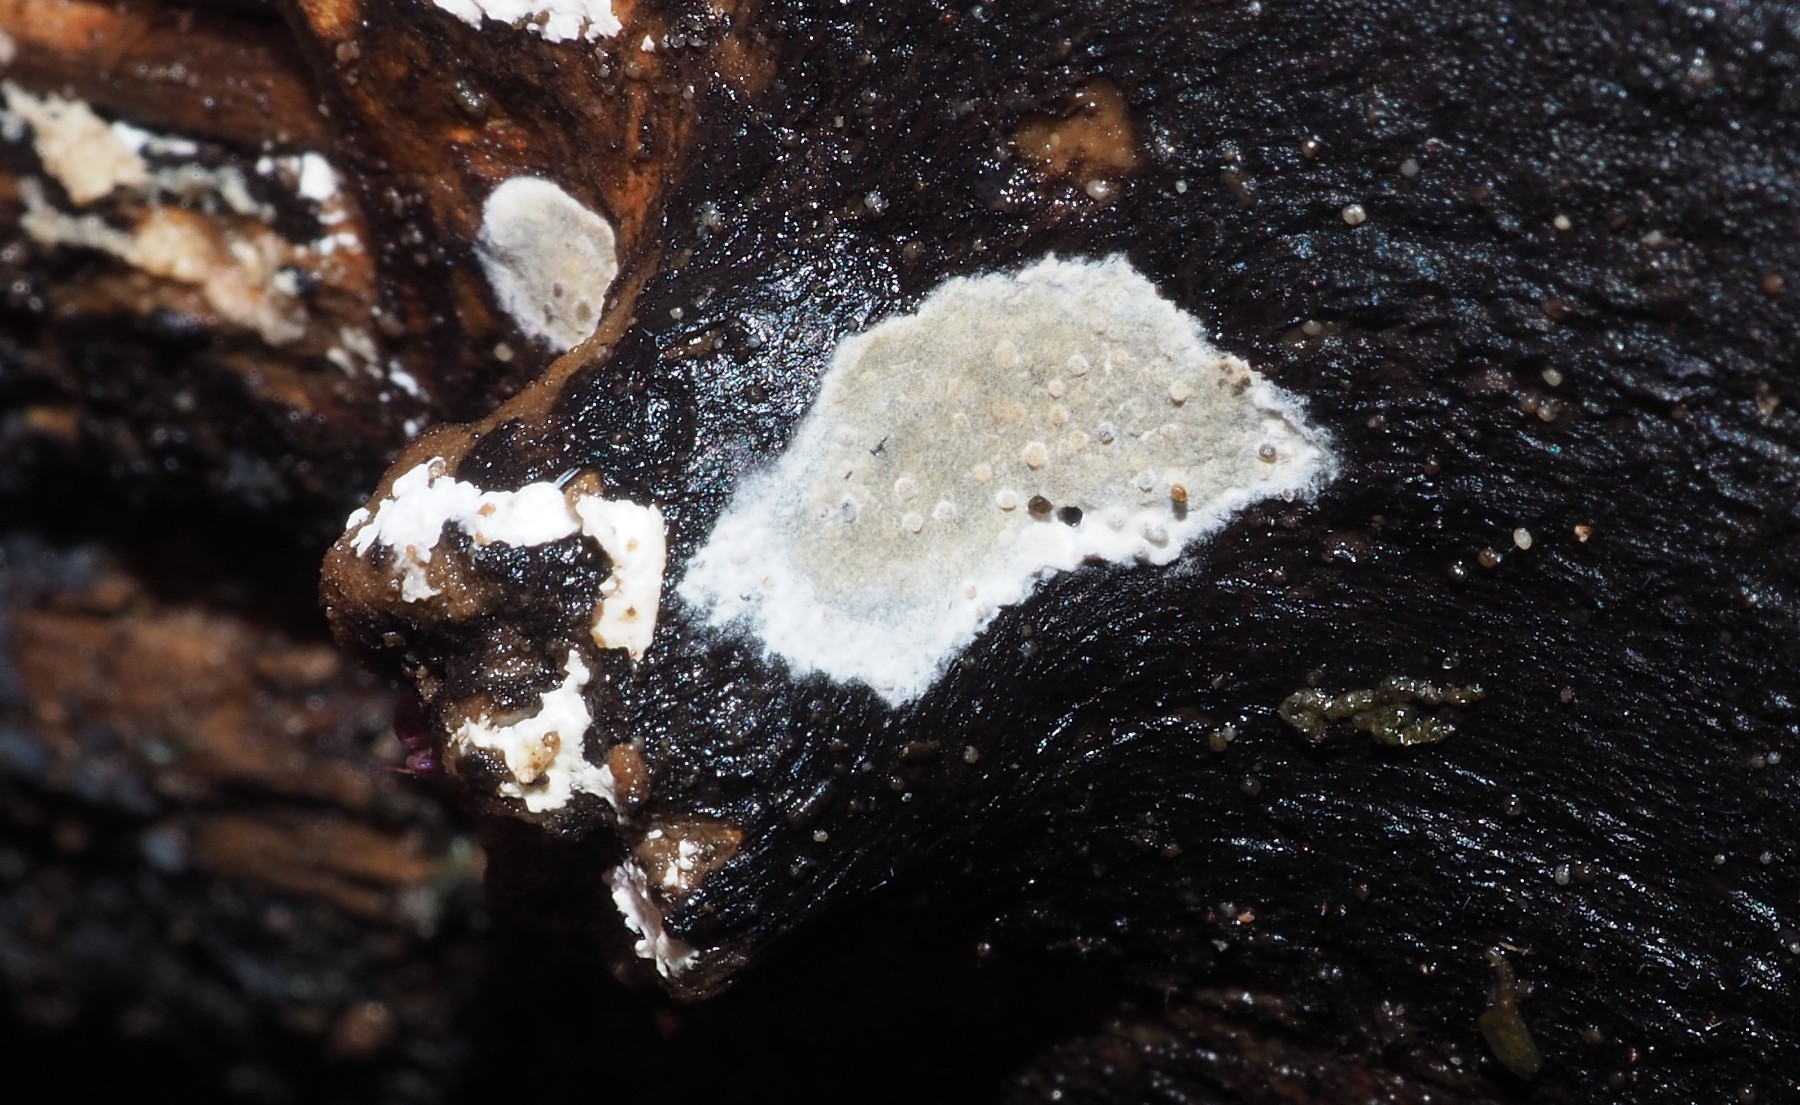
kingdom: Fungi
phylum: Basidiomycota
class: Agaricomycetes
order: Agaricales
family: Radulomycetaceae
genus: Radulomyces
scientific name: Radulomyces confluens
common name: glat naftalinskind
